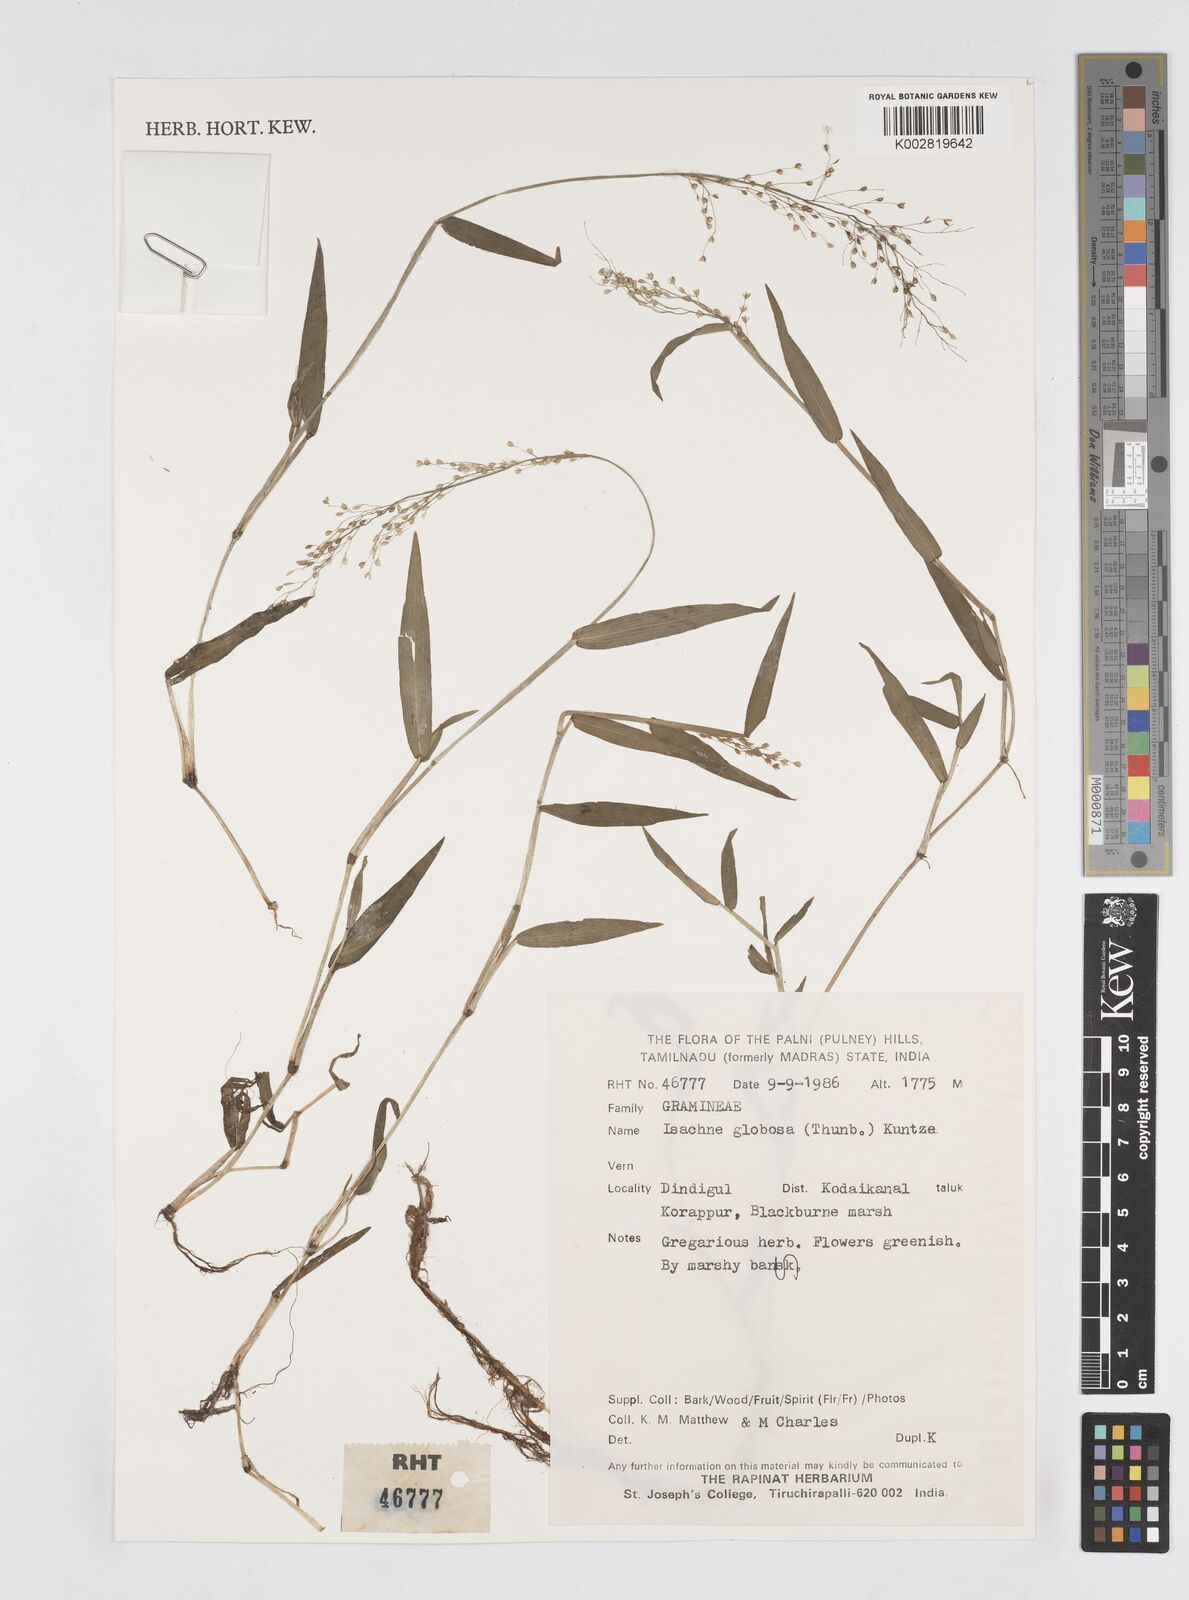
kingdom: Plantae
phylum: Tracheophyta
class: Liliopsida
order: Poales
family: Poaceae
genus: Isachne
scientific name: Isachne globosa
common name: Swamp millet
